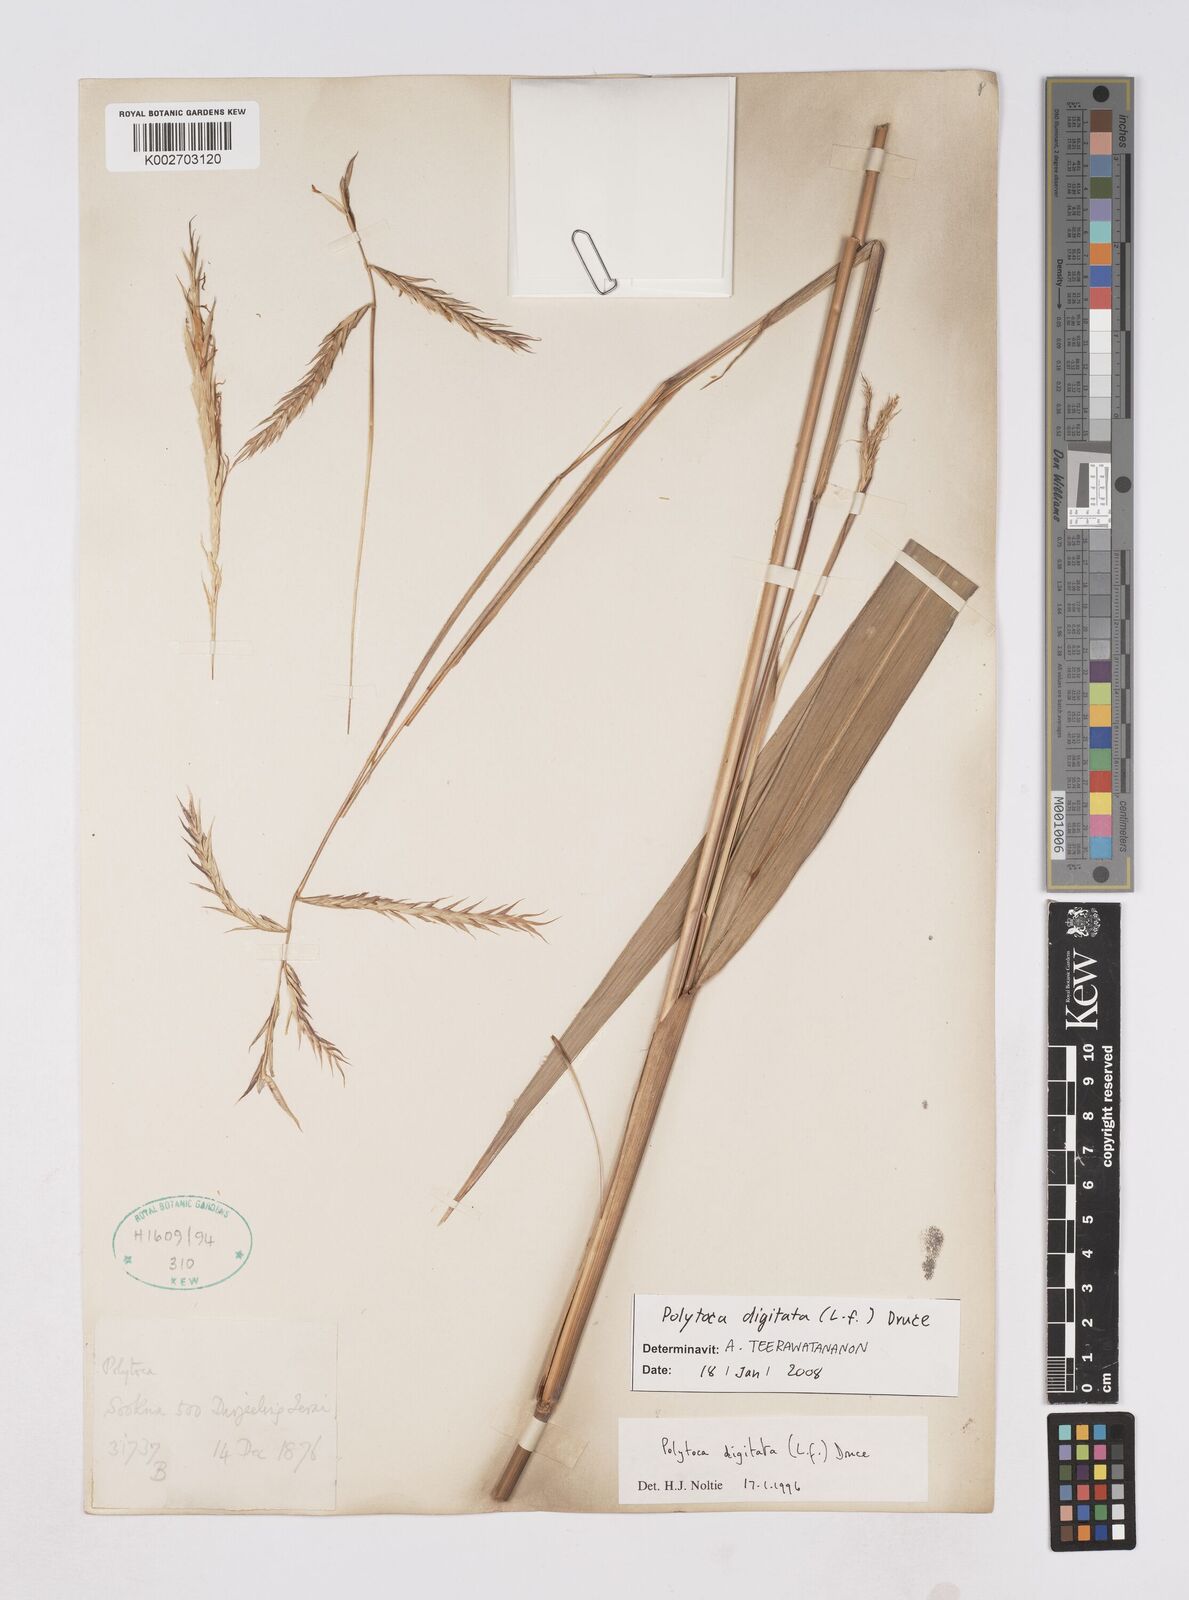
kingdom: Plantae
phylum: Tracheophyta
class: Liliopsida
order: Poales
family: Poaceae
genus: Polytoca
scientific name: Polytoca digitata
